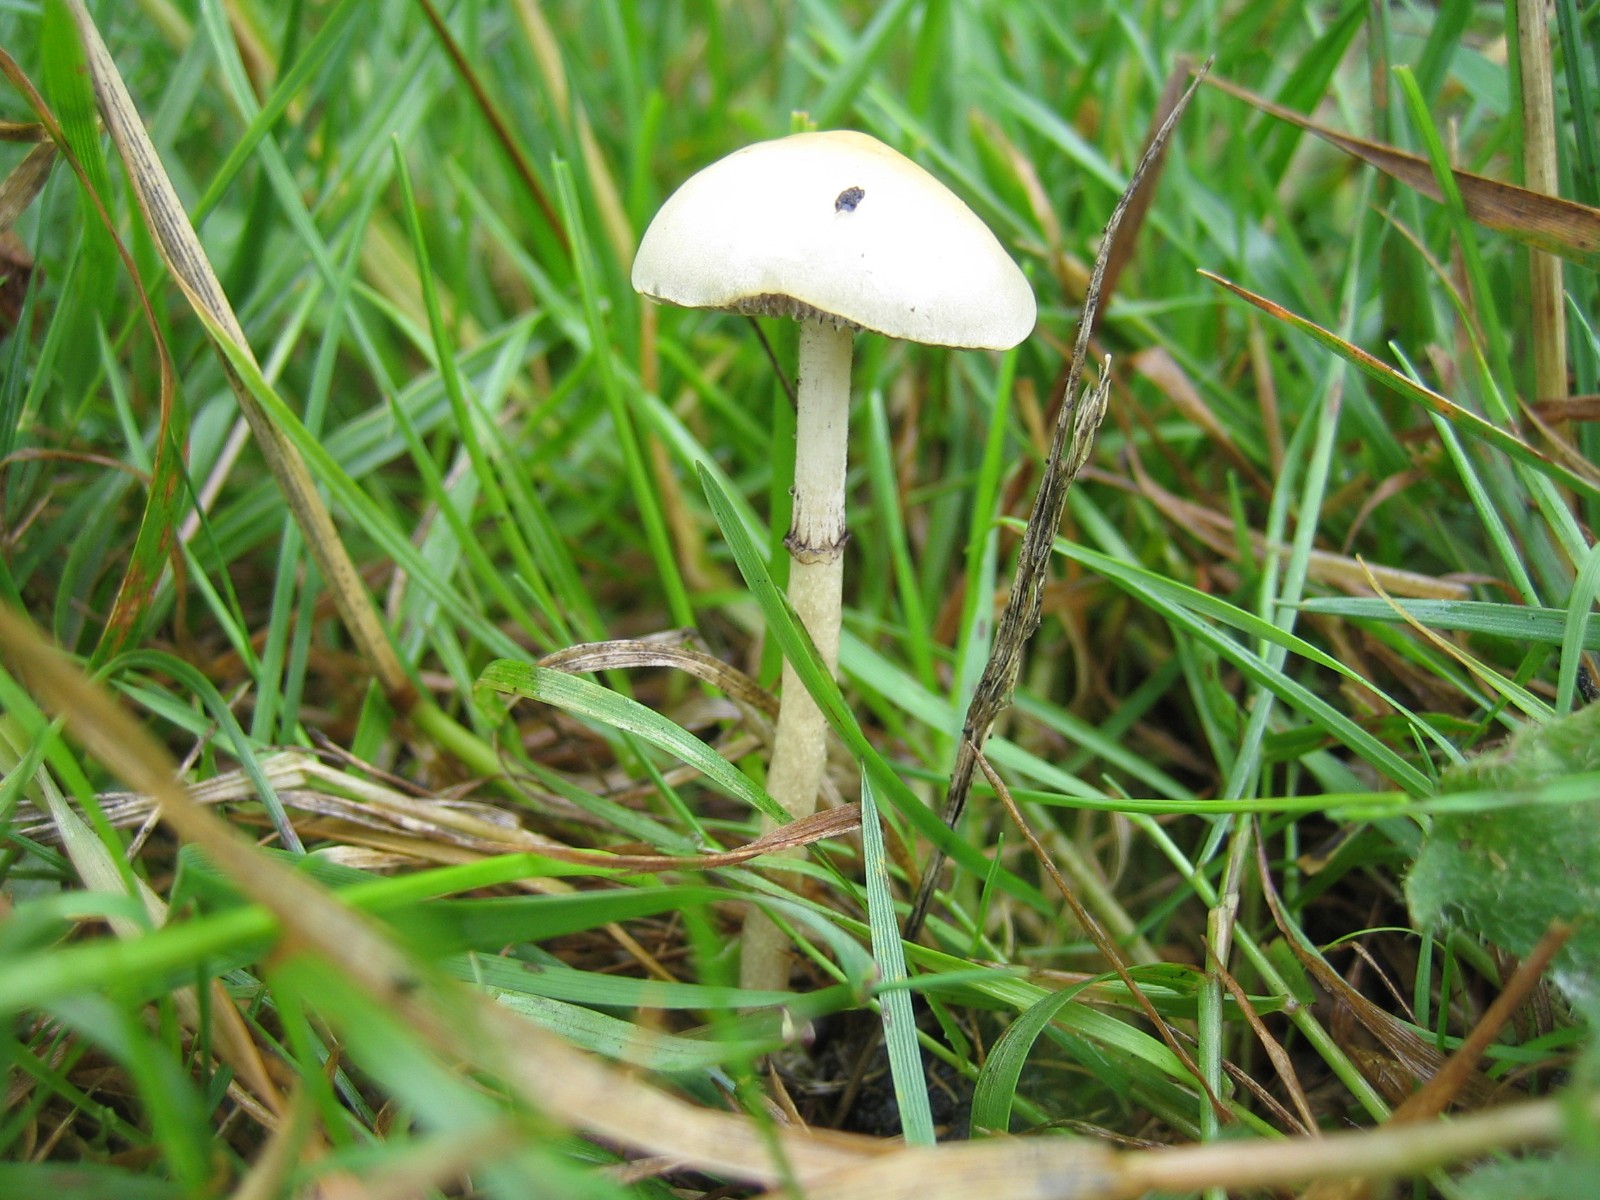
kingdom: Fungi
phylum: Basidiomycota
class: Agaricomycetes
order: Agaricales
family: Strophariaceae
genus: Protostropharia
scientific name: Protostropharia semiglobata
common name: halvkugleformet bredblad
